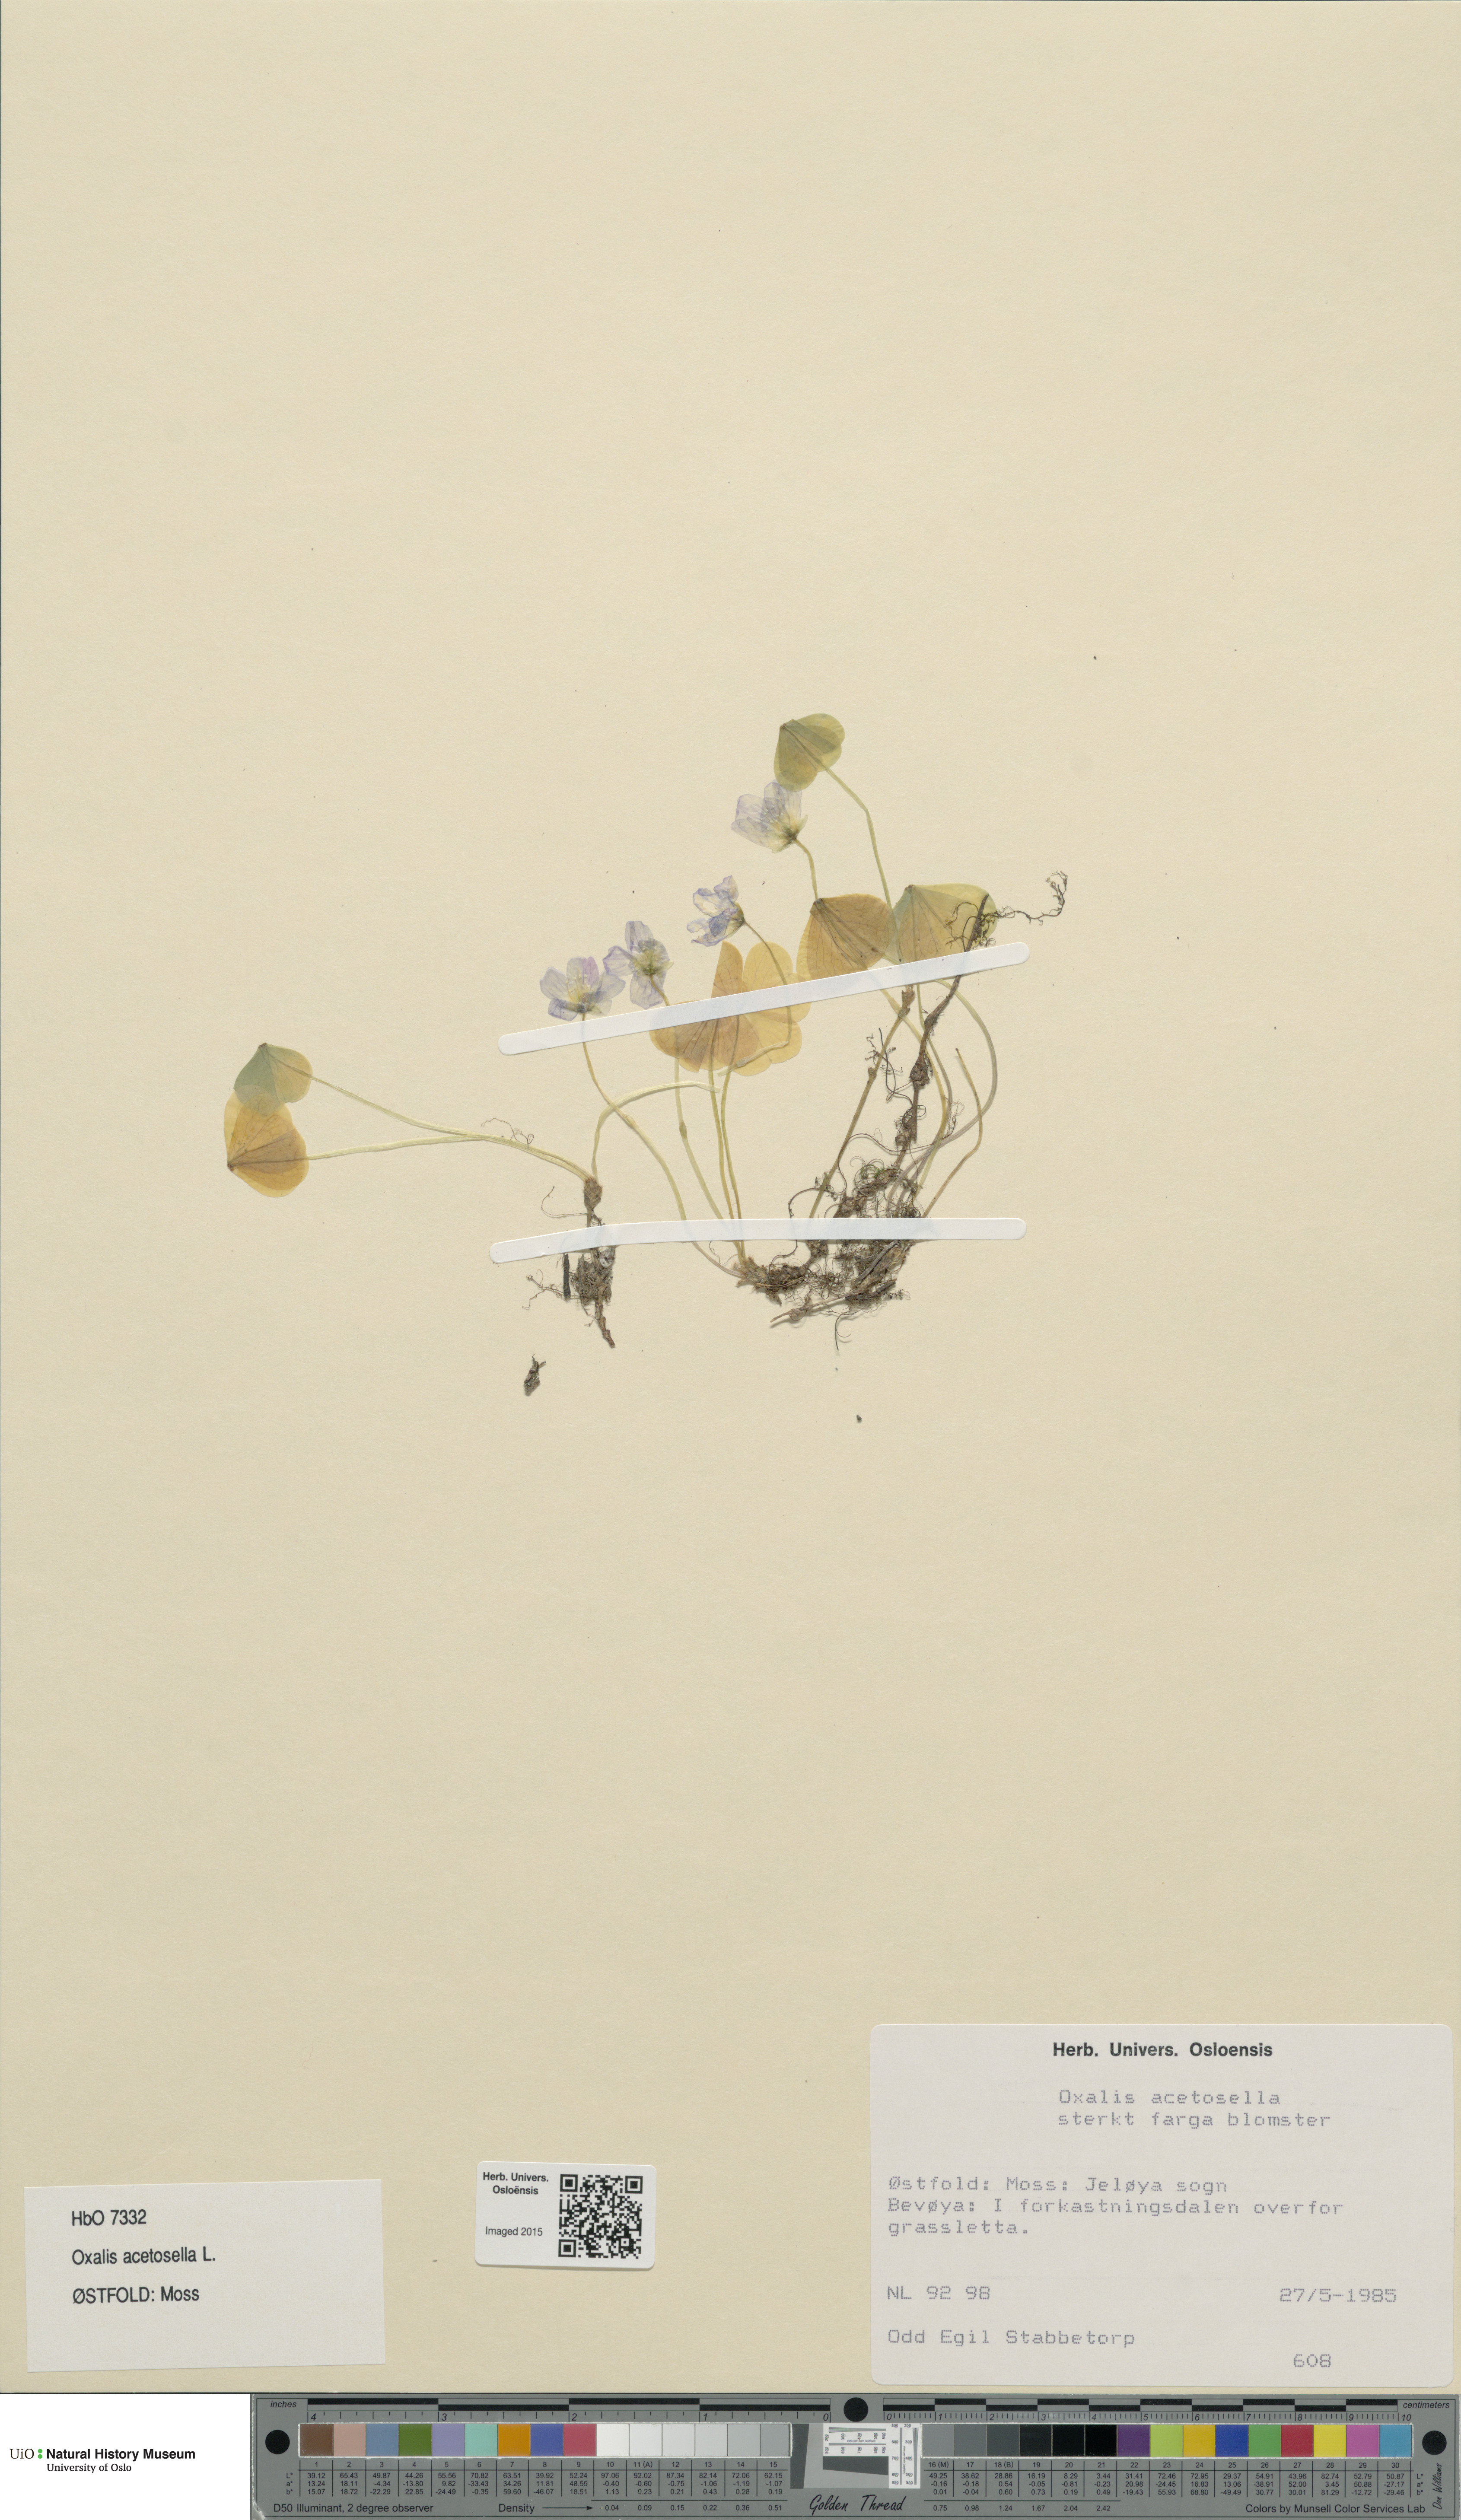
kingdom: Plantae
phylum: Tracheophyta
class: Magnoliopsida
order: Oxalidales
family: Oxalidaceae
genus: Oxalis
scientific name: Oxalis acetosella
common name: Wood-sorrel
